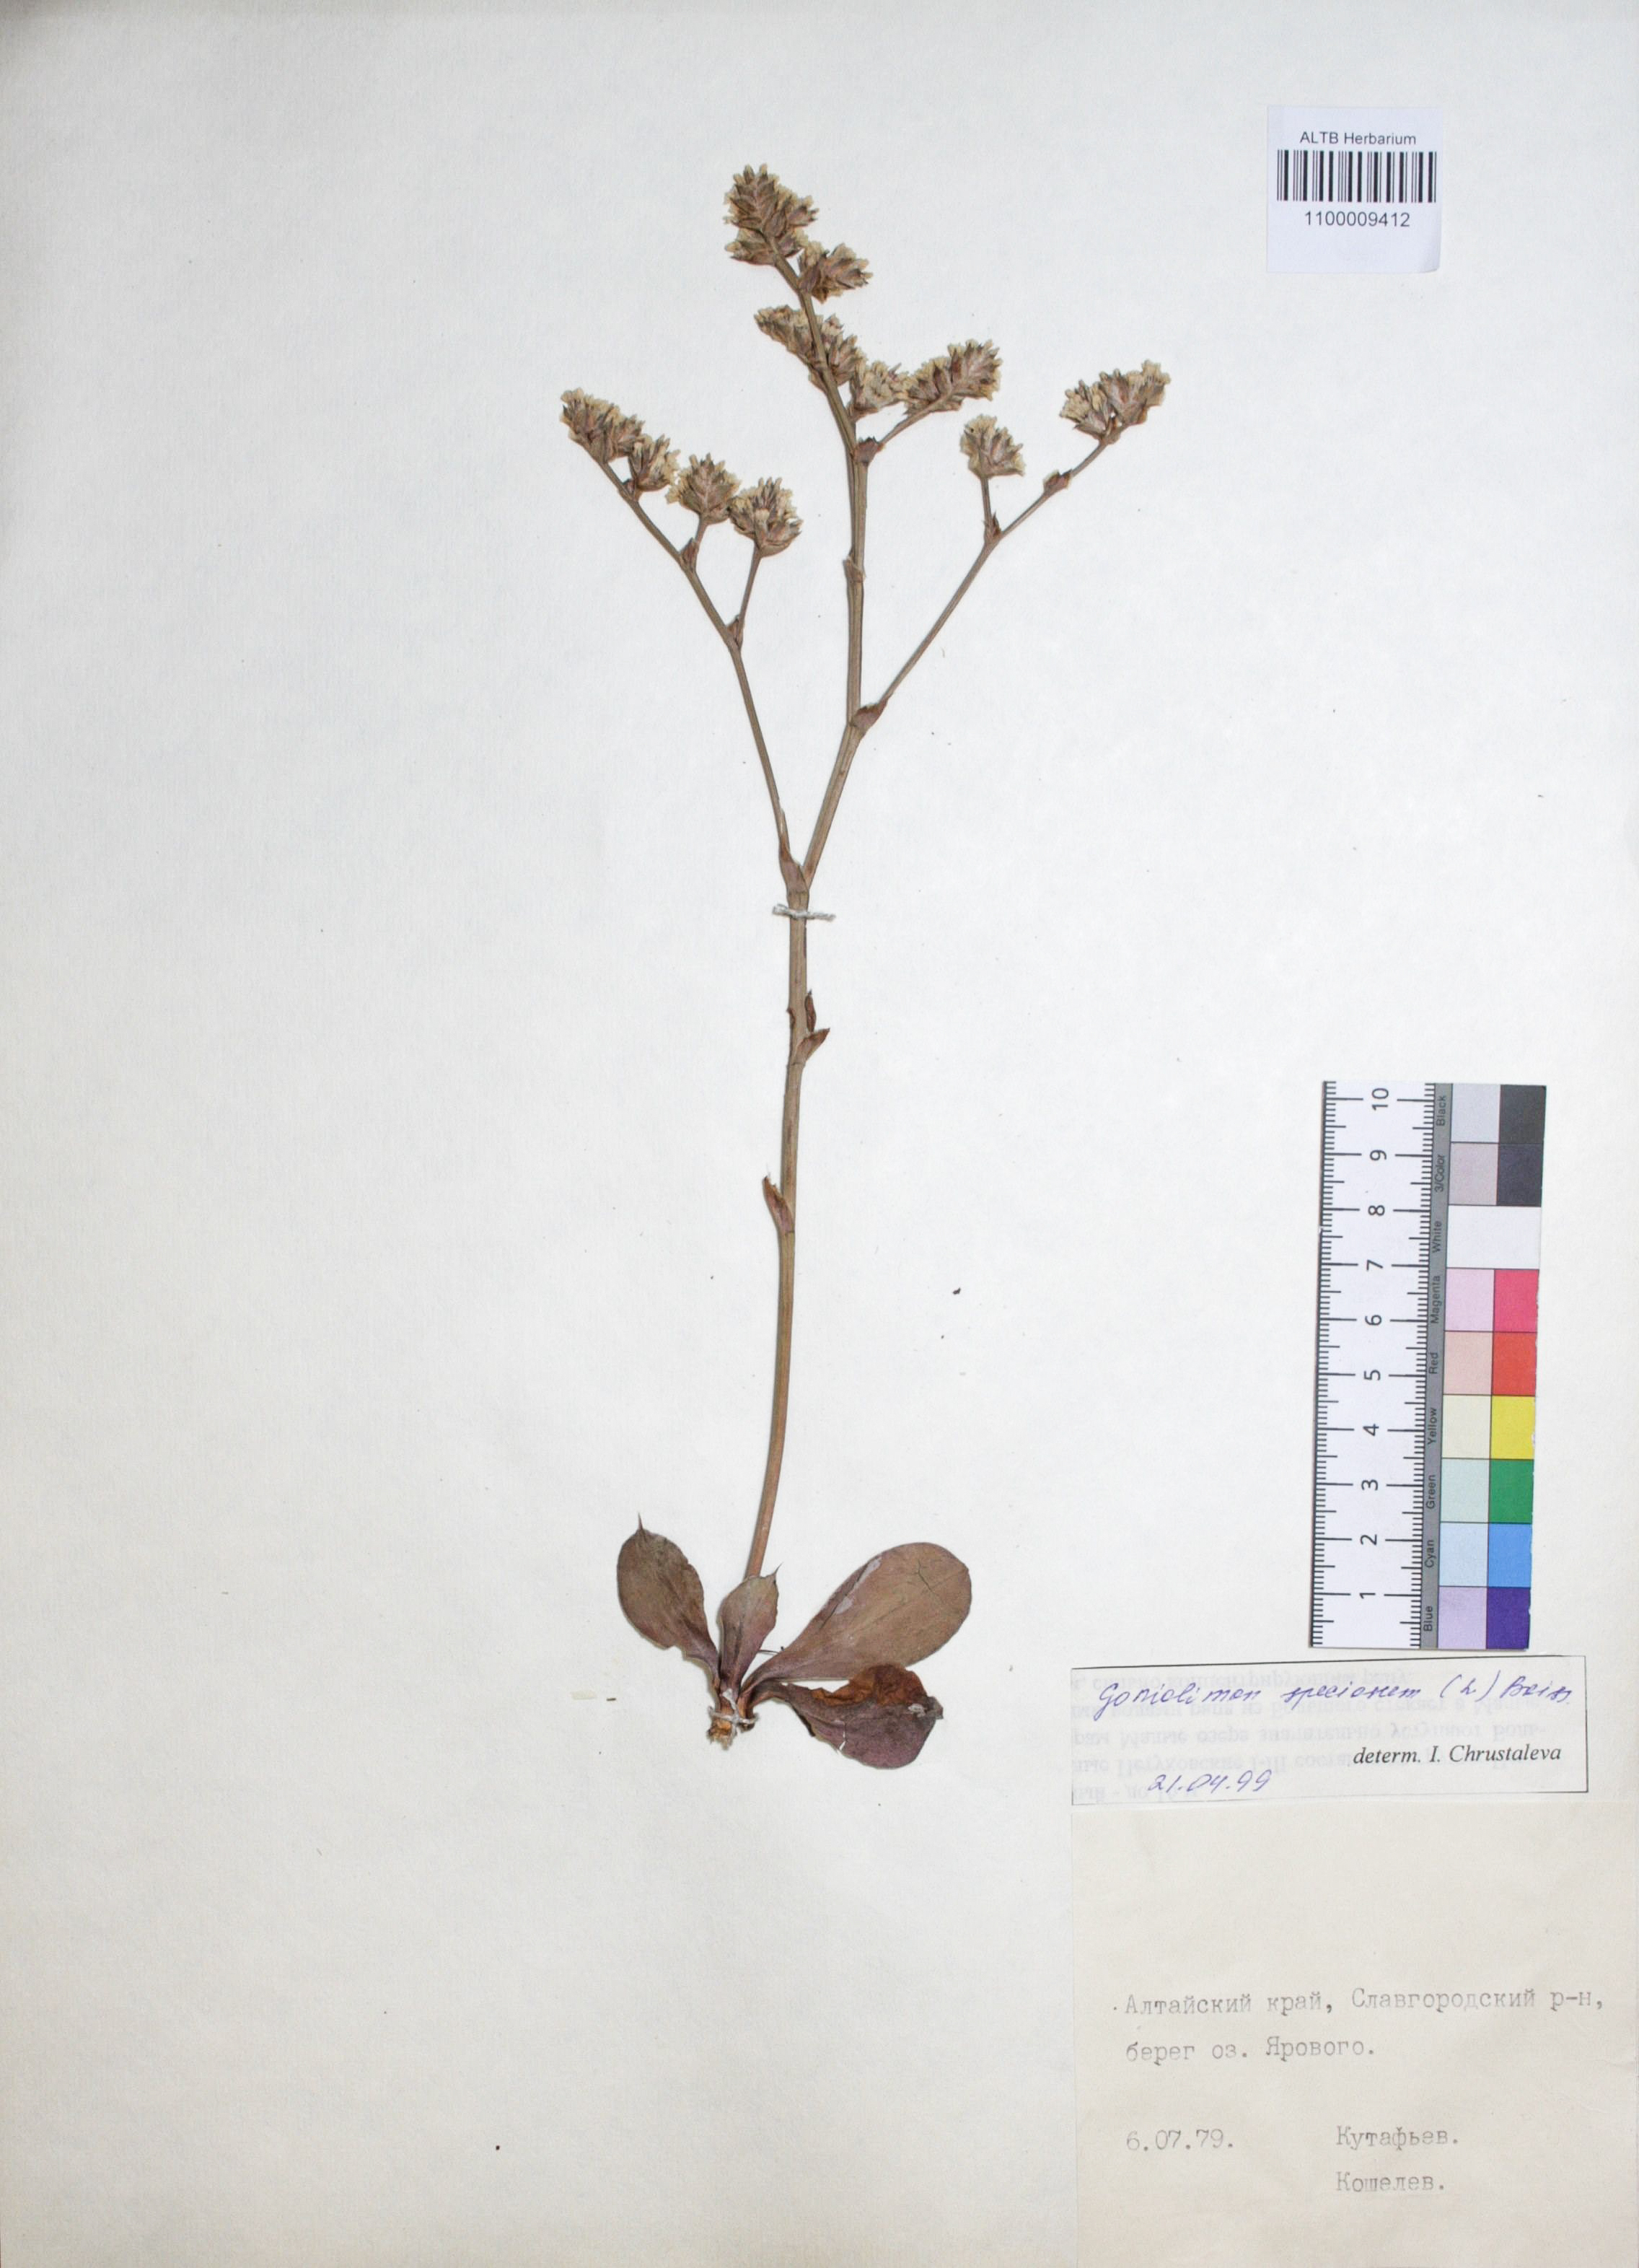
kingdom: Plantae
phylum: Tracheophyta
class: Magnoliopsida
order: Caryophyllales
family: Plumbaginaceae
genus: Goniolimon
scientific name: Goniolimon speciosum
